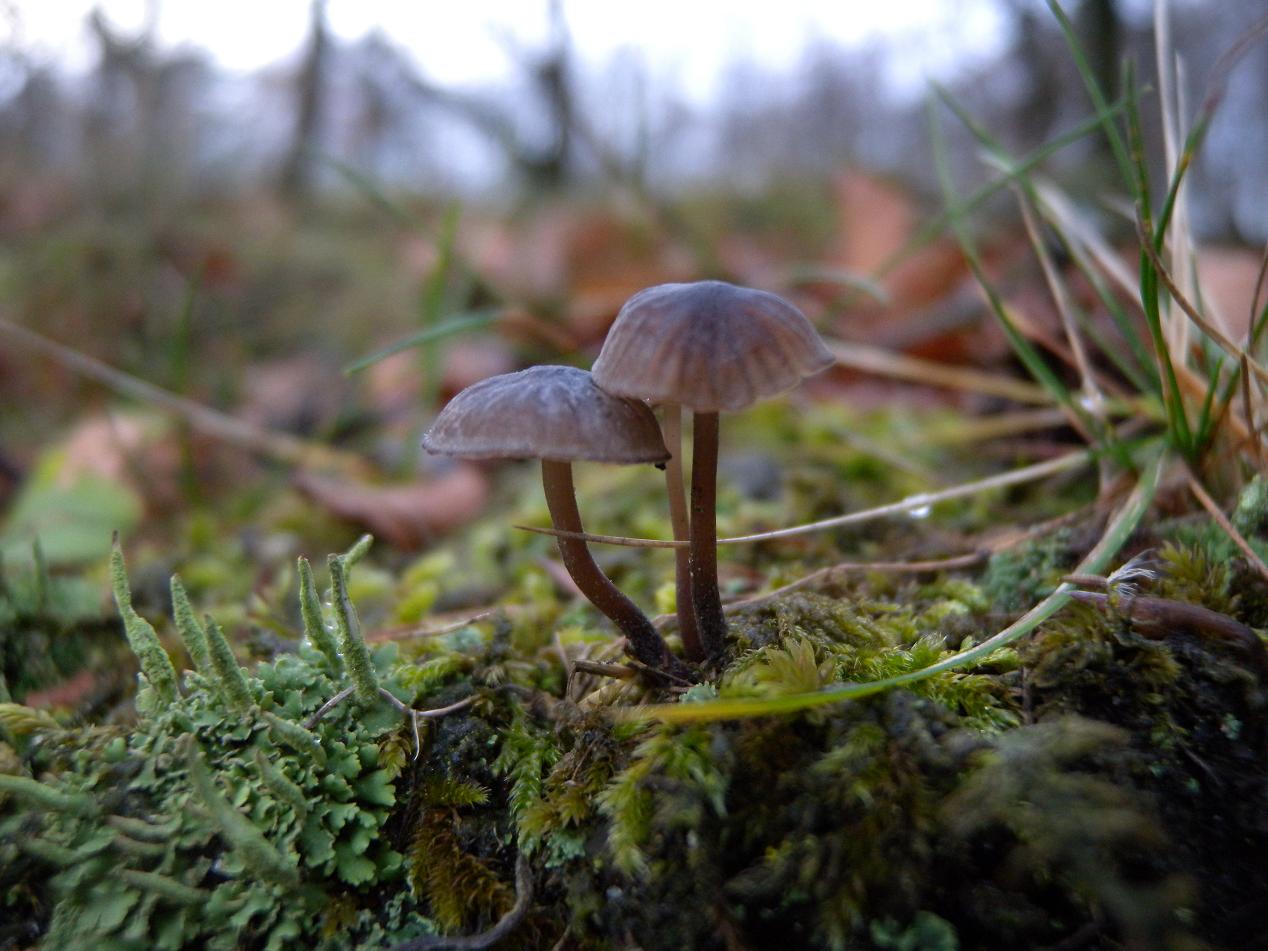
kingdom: Fungi
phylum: Basidiomycota
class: Agaricomycetes
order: Agaricales
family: Mycenaceae
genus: Mycena
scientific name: Mycena galopus
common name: hvidmælket huesvamp
